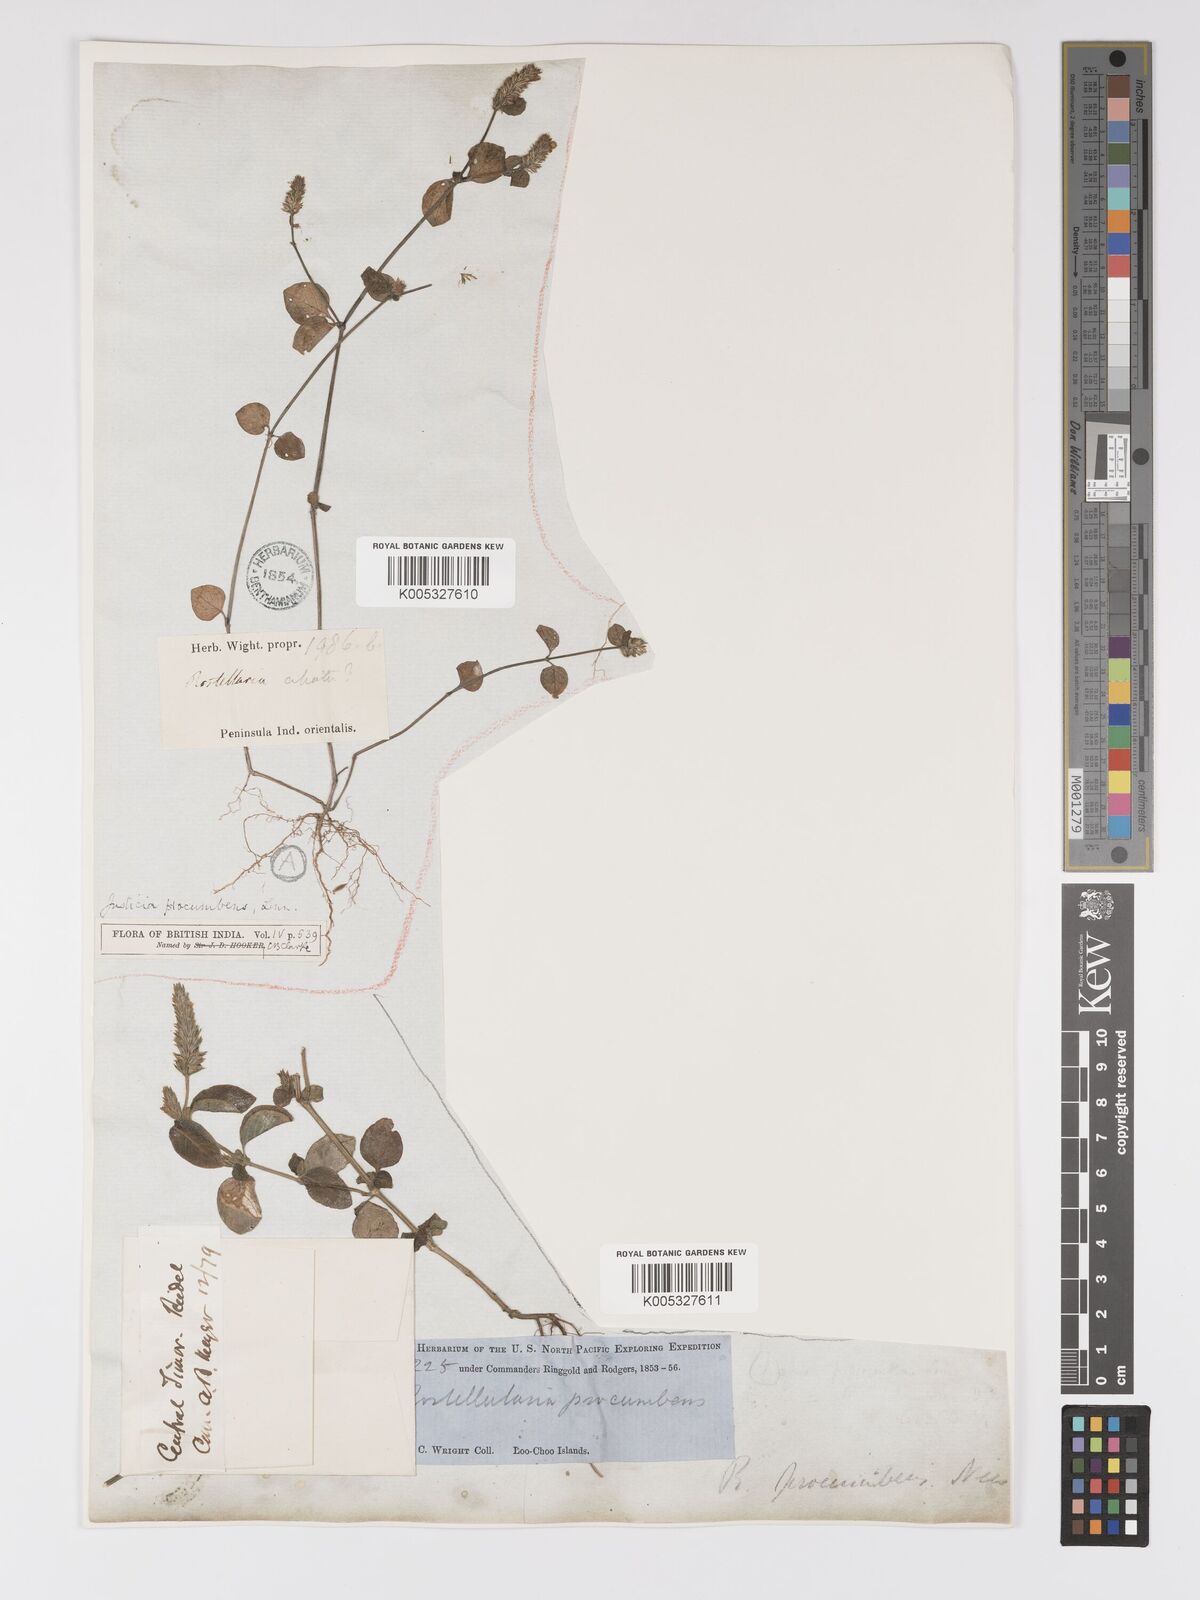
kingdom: Plantae
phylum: Tracheophyta
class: Magnoliopsida
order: Lamiales
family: Acanthaceae
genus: Rostellularia
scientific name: Rostellularia procumbens
